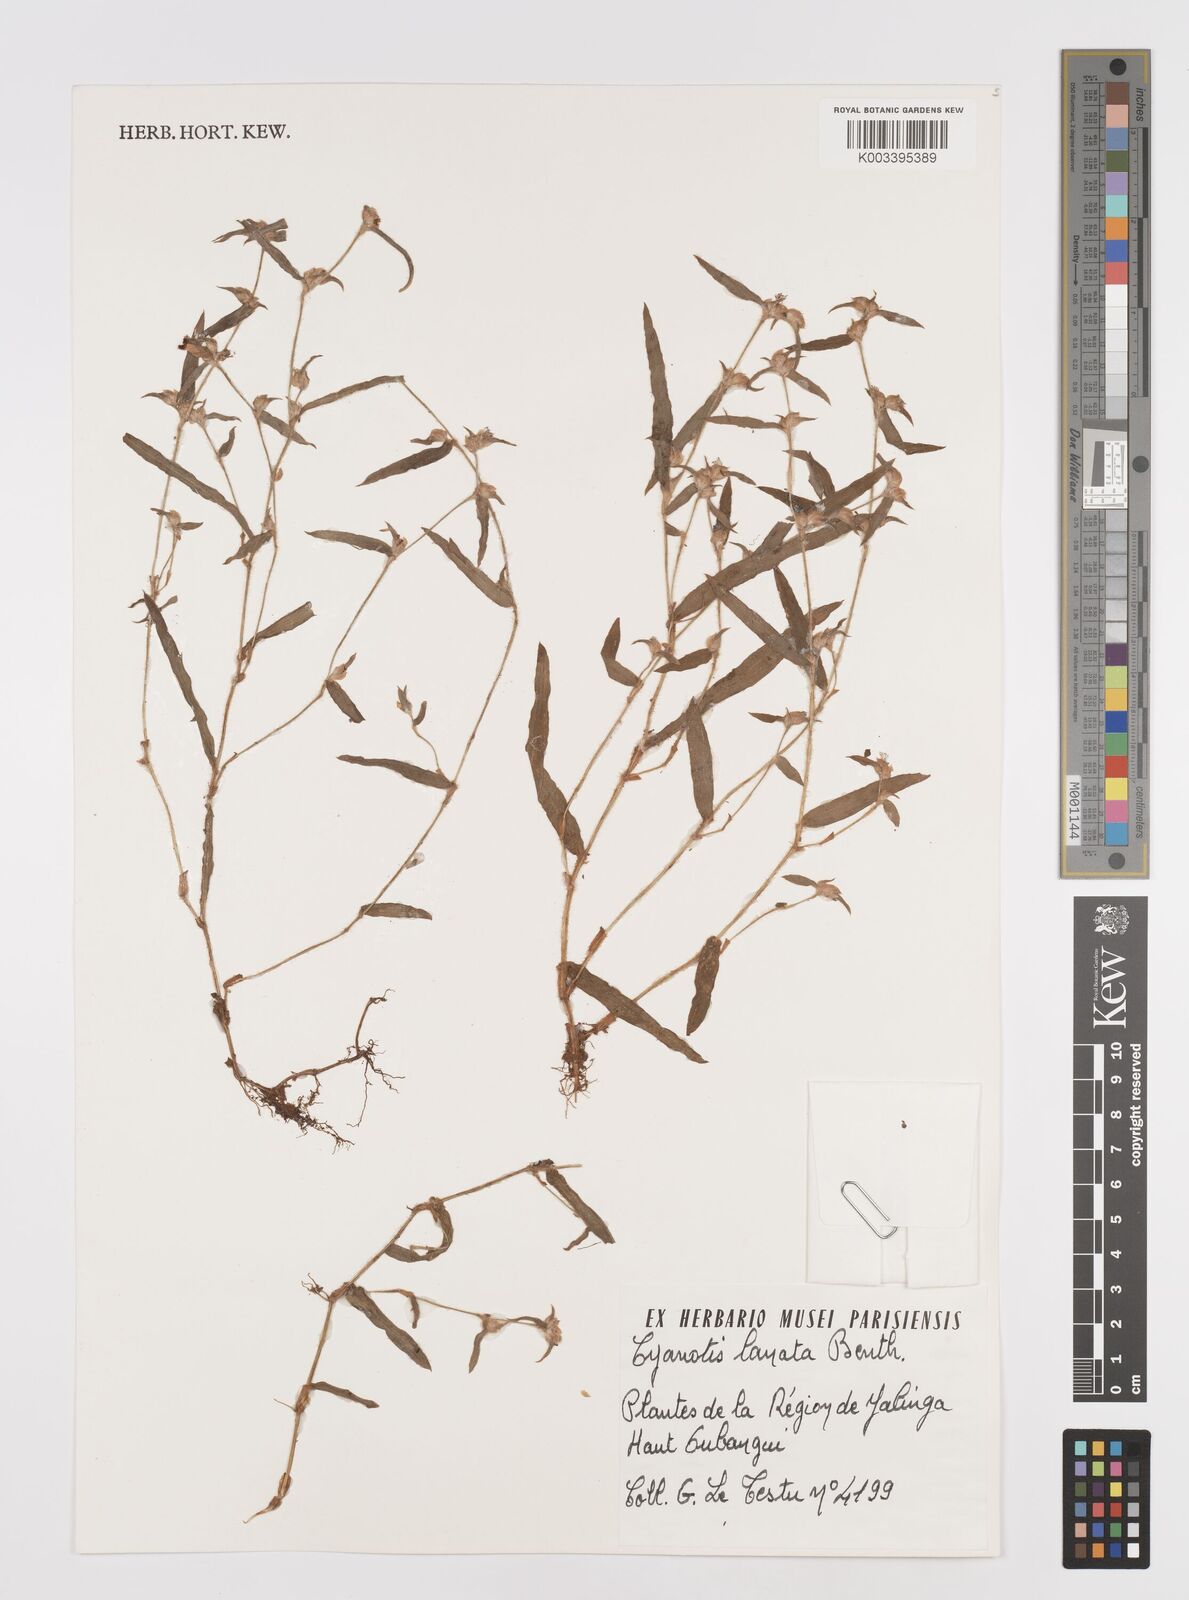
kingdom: Plantae
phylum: Tracheophyta
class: Liliopsida
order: Commelinales
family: Commelinaceae
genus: Cyanotis
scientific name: Cyanotis lanata
